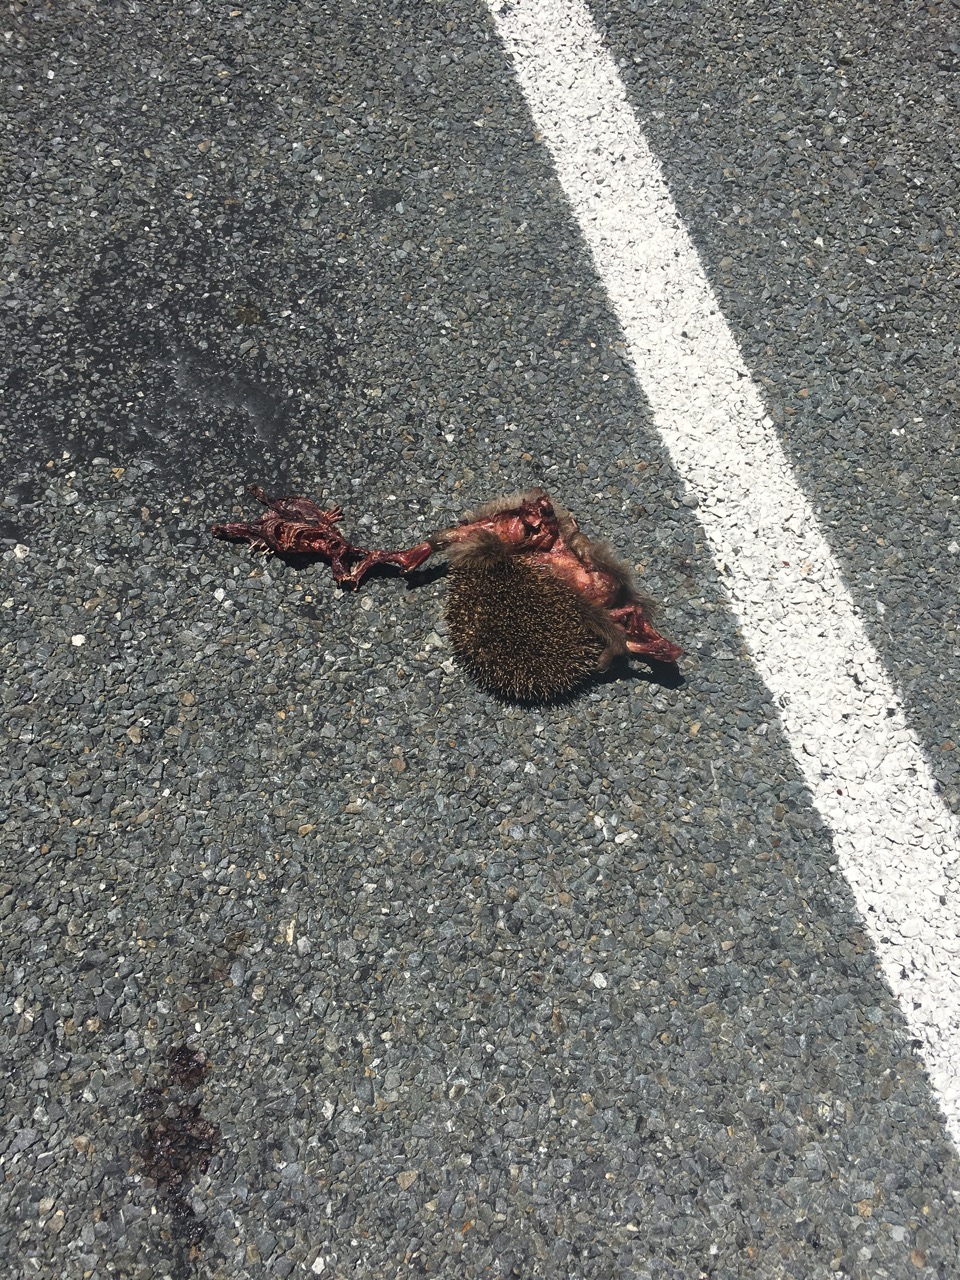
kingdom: Animalia
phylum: Chordata
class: Mammalia
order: Erinaceomorpha
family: Erinaceidae
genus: Erinaceus
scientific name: Erinaceus
